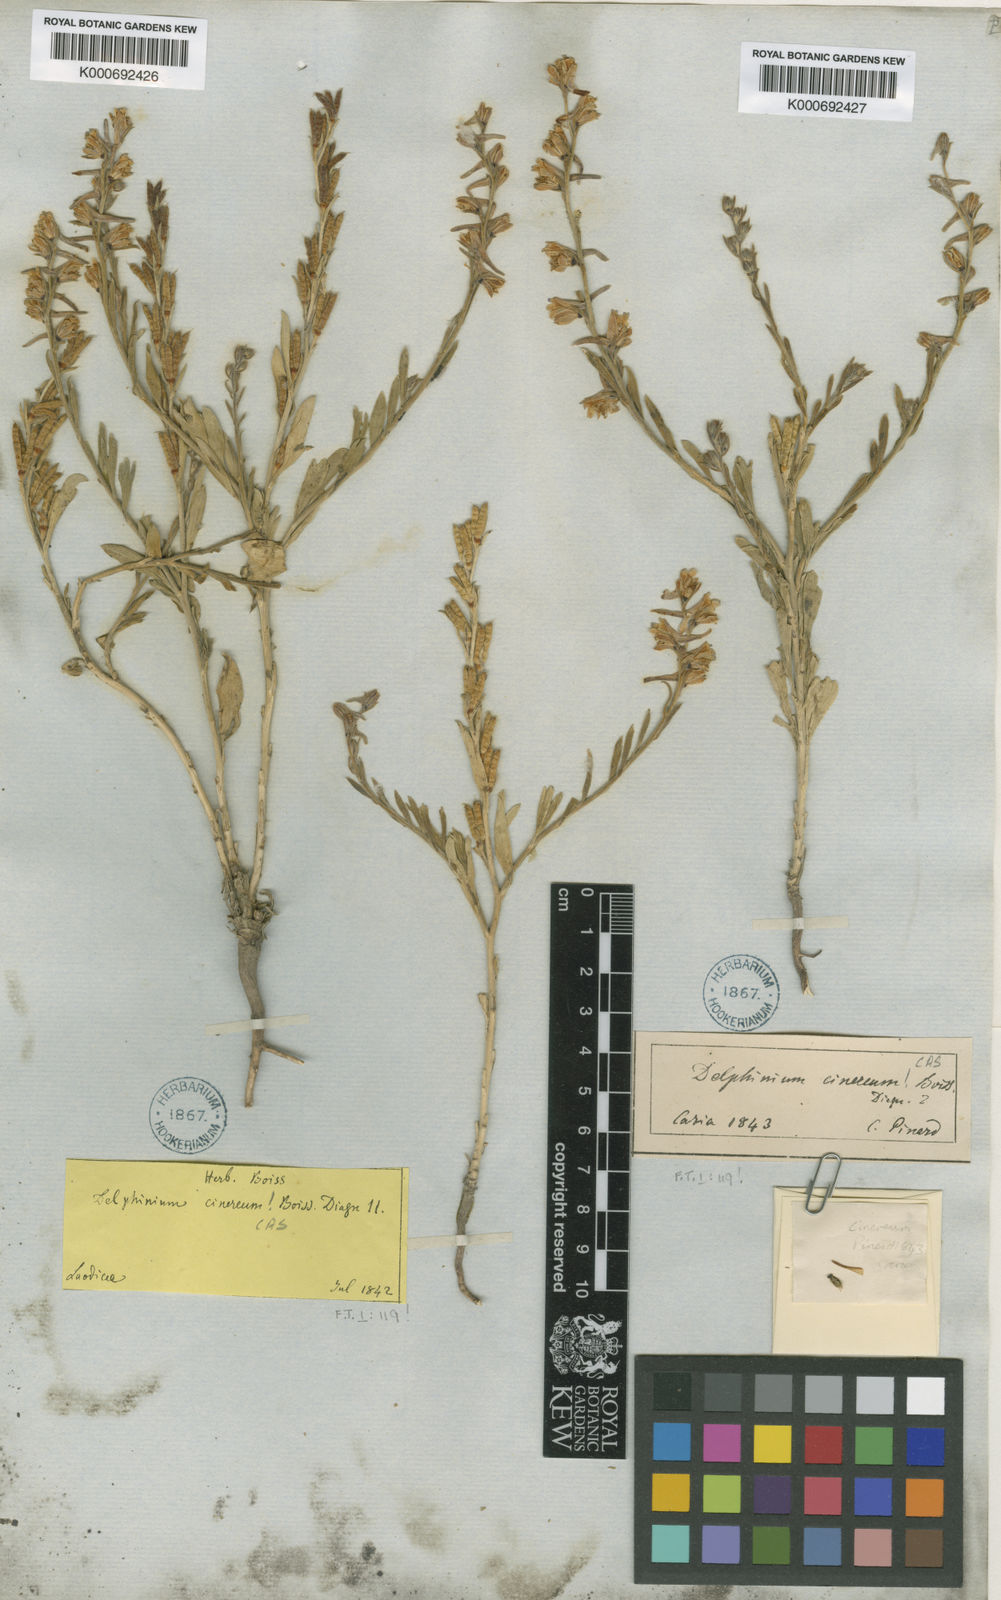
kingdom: Plantae
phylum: Tracheophyta
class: Magnoliopsida
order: Ranunculales
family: Ranunculaceae
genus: Delphinium
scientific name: Delphinium cinereum
